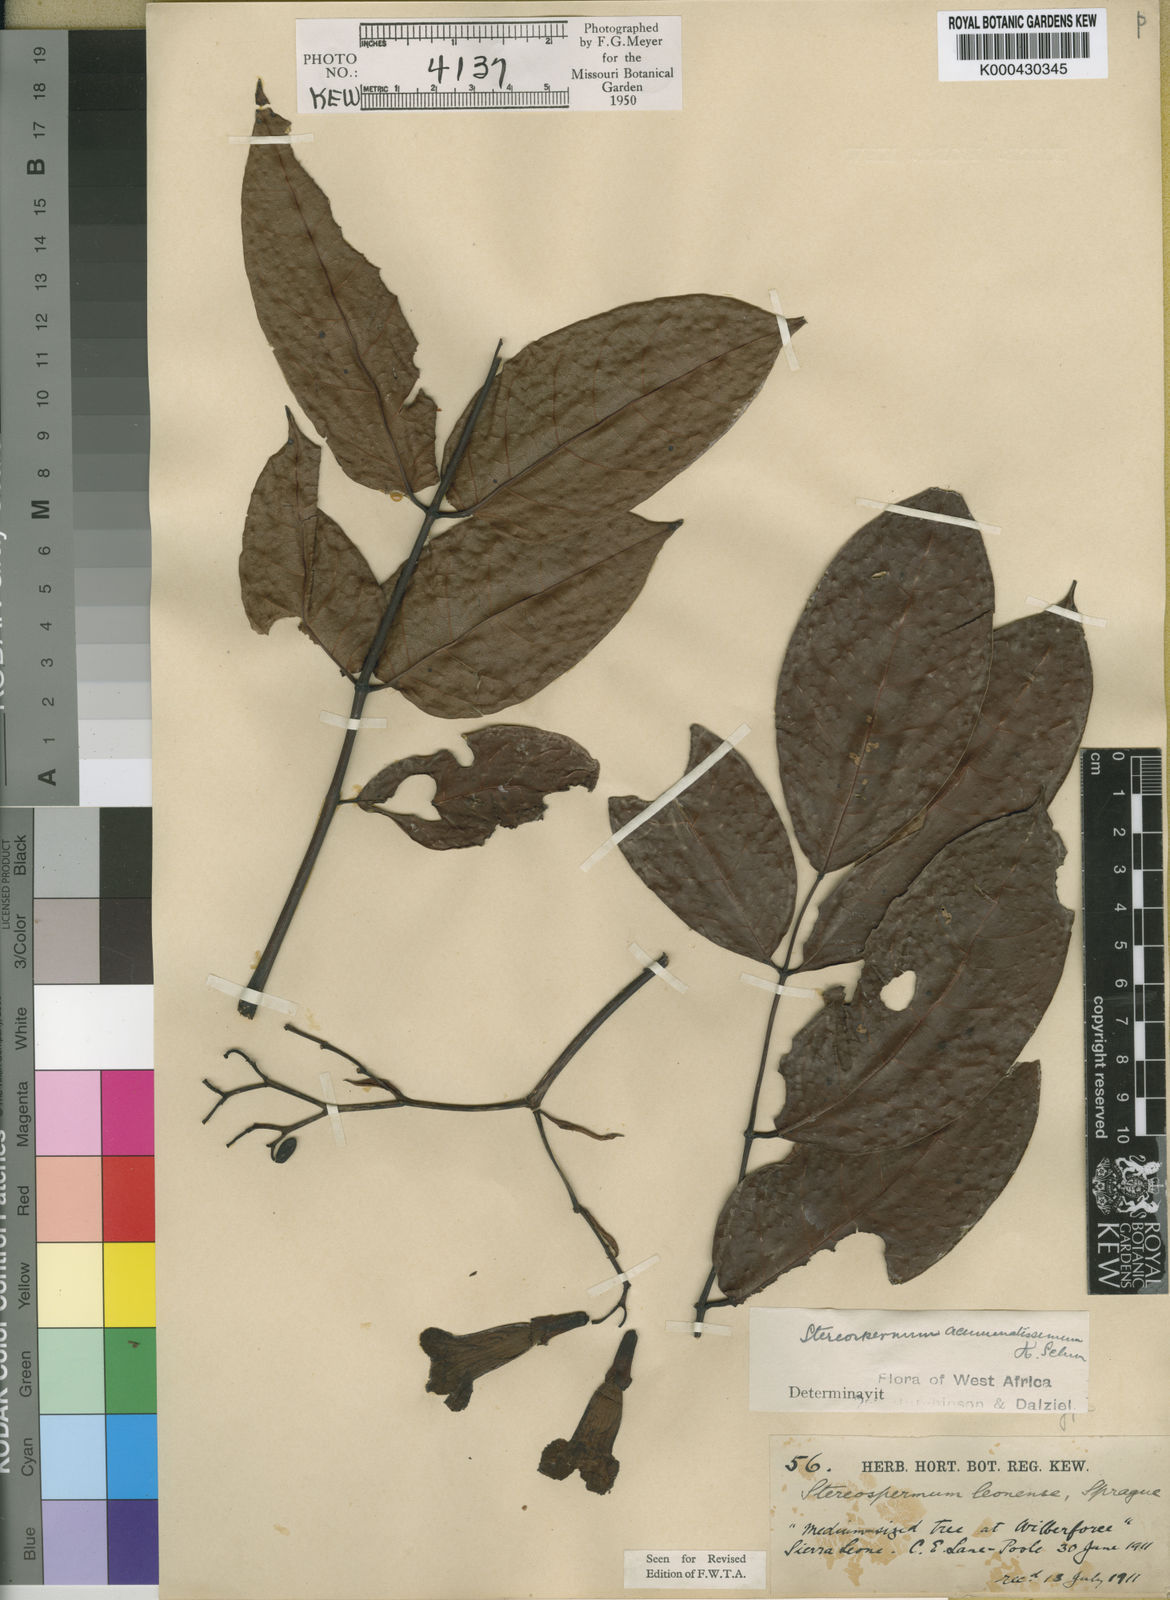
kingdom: Plantae
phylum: Tracheophyta
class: Magnoliopsida
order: Lamiales
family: Bignoniaceae
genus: Stereospermum
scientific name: Stereospermum acuminatissimum
